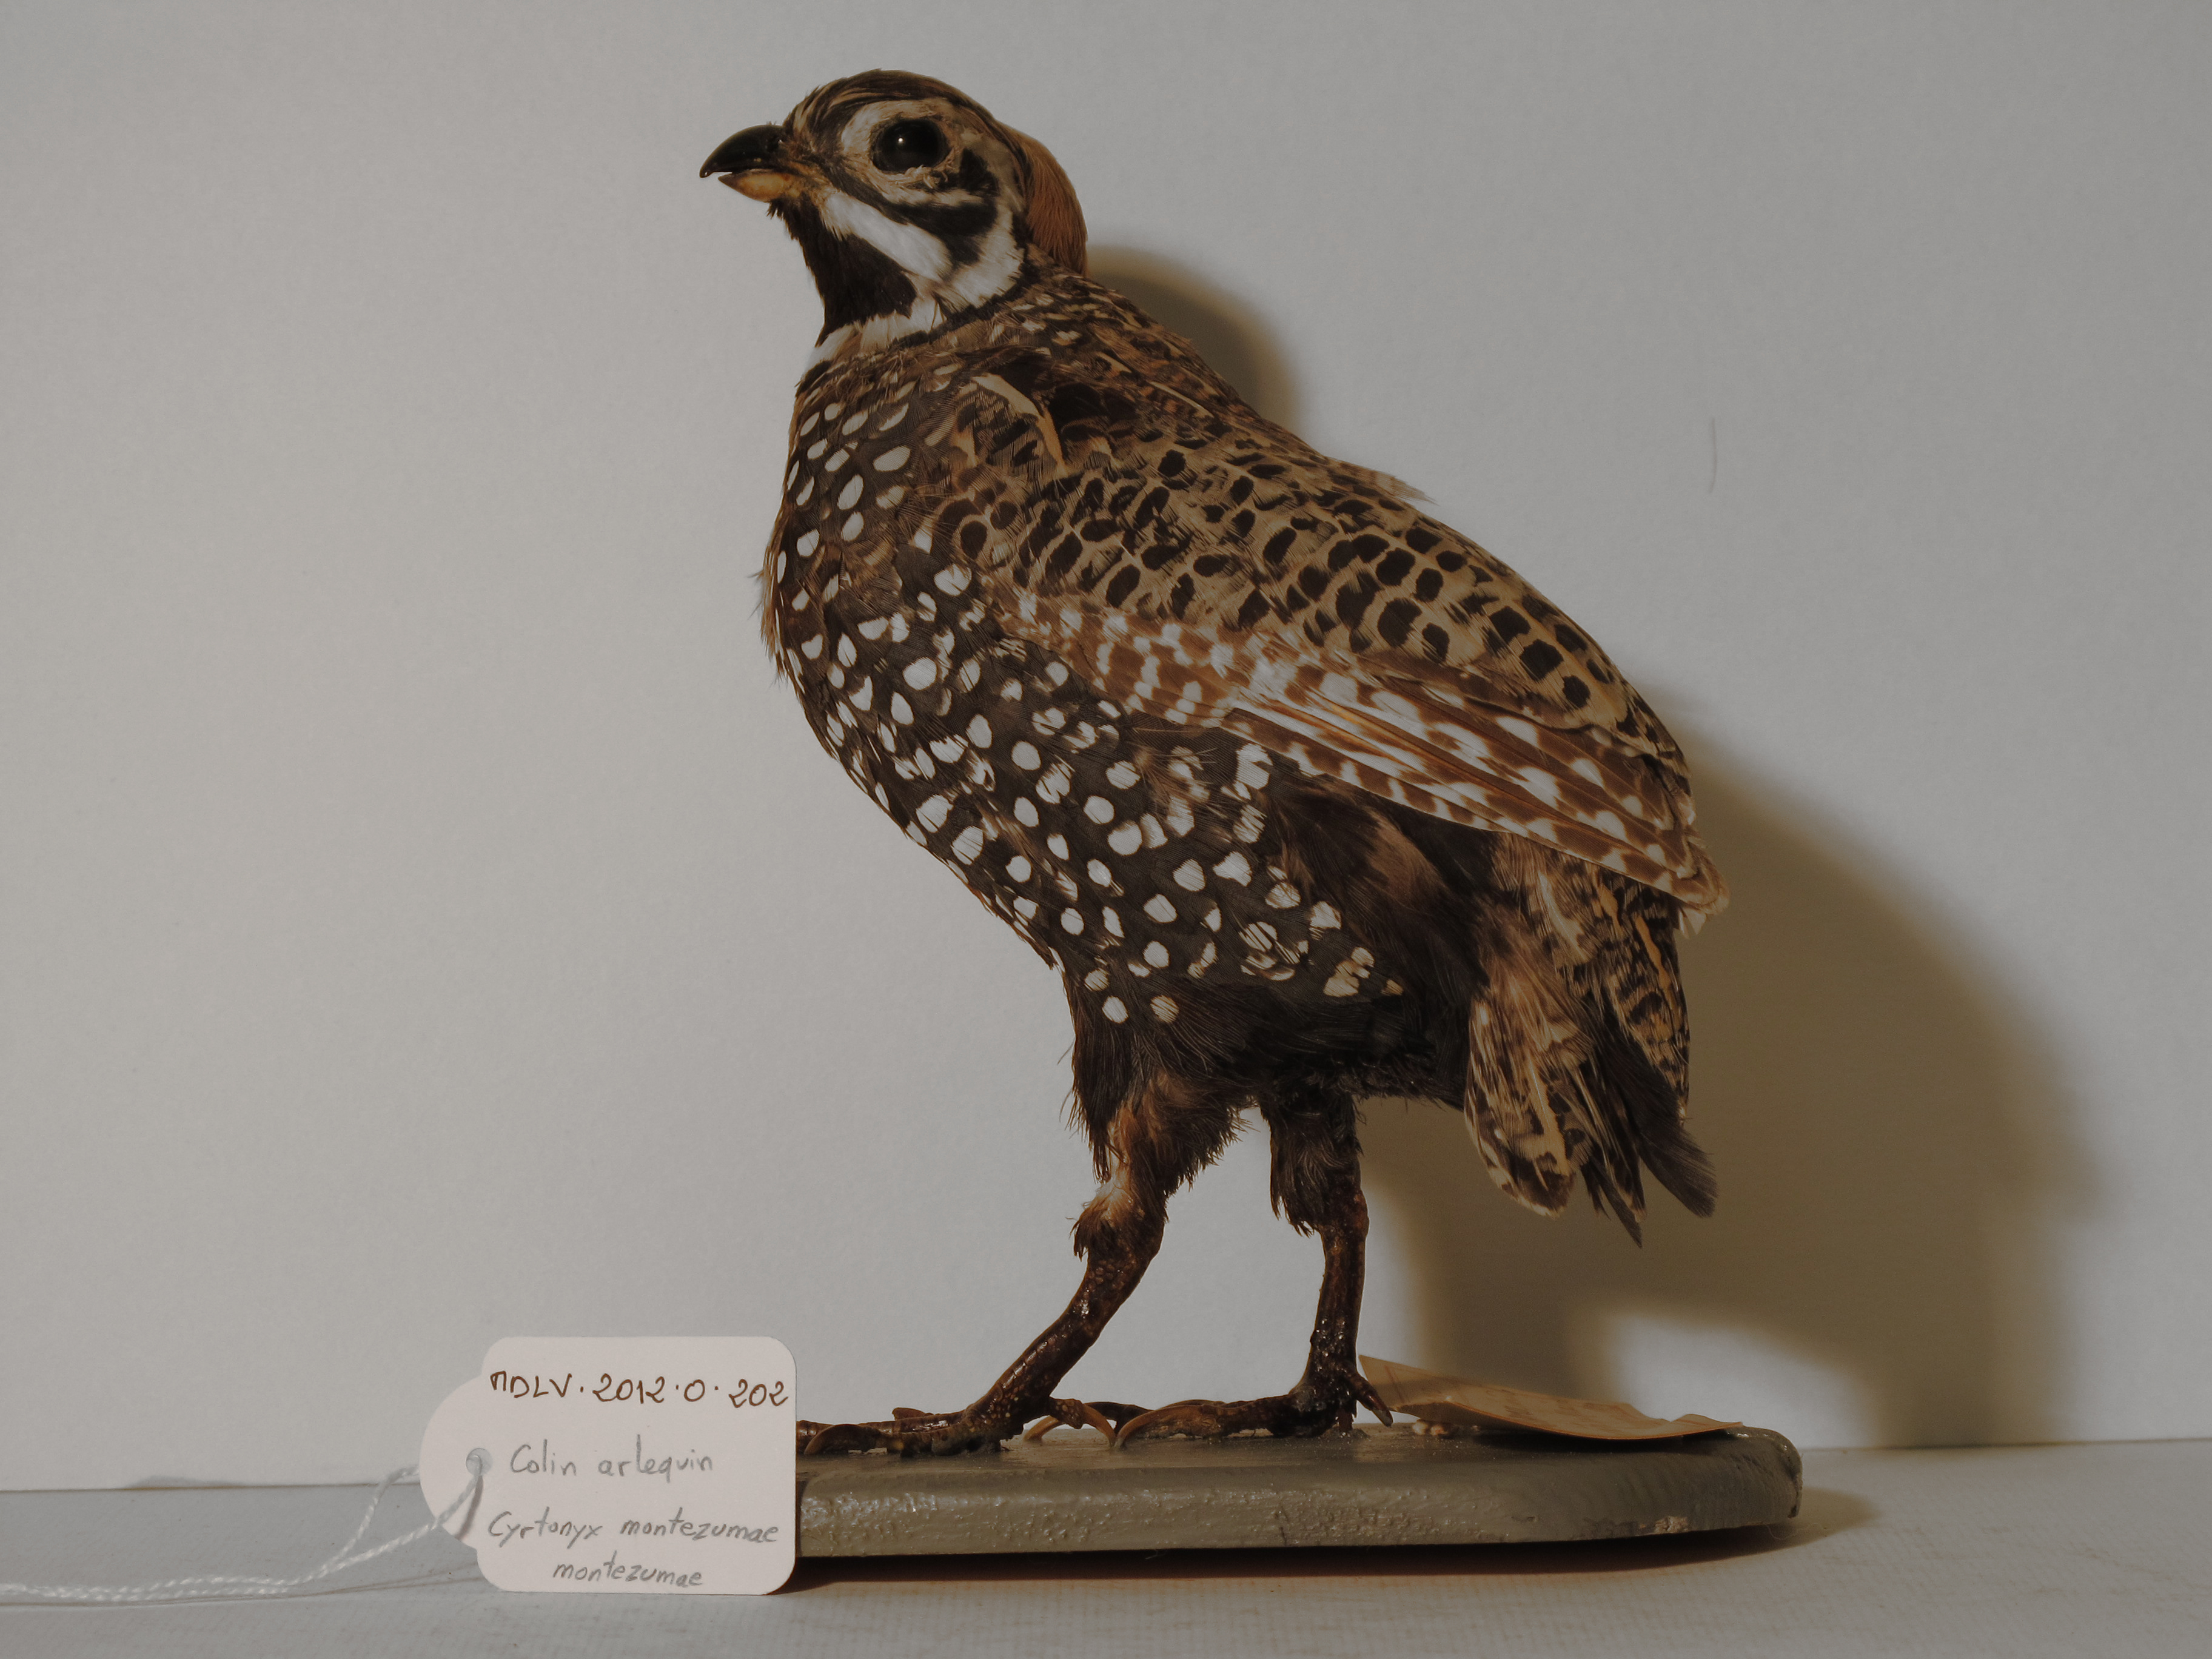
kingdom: Animalia
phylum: Chordata
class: Aves
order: Galliformes
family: Odontophoridae
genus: Cyrtonyx
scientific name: Cyrtonyx montezumae
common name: Montezuma Quail
